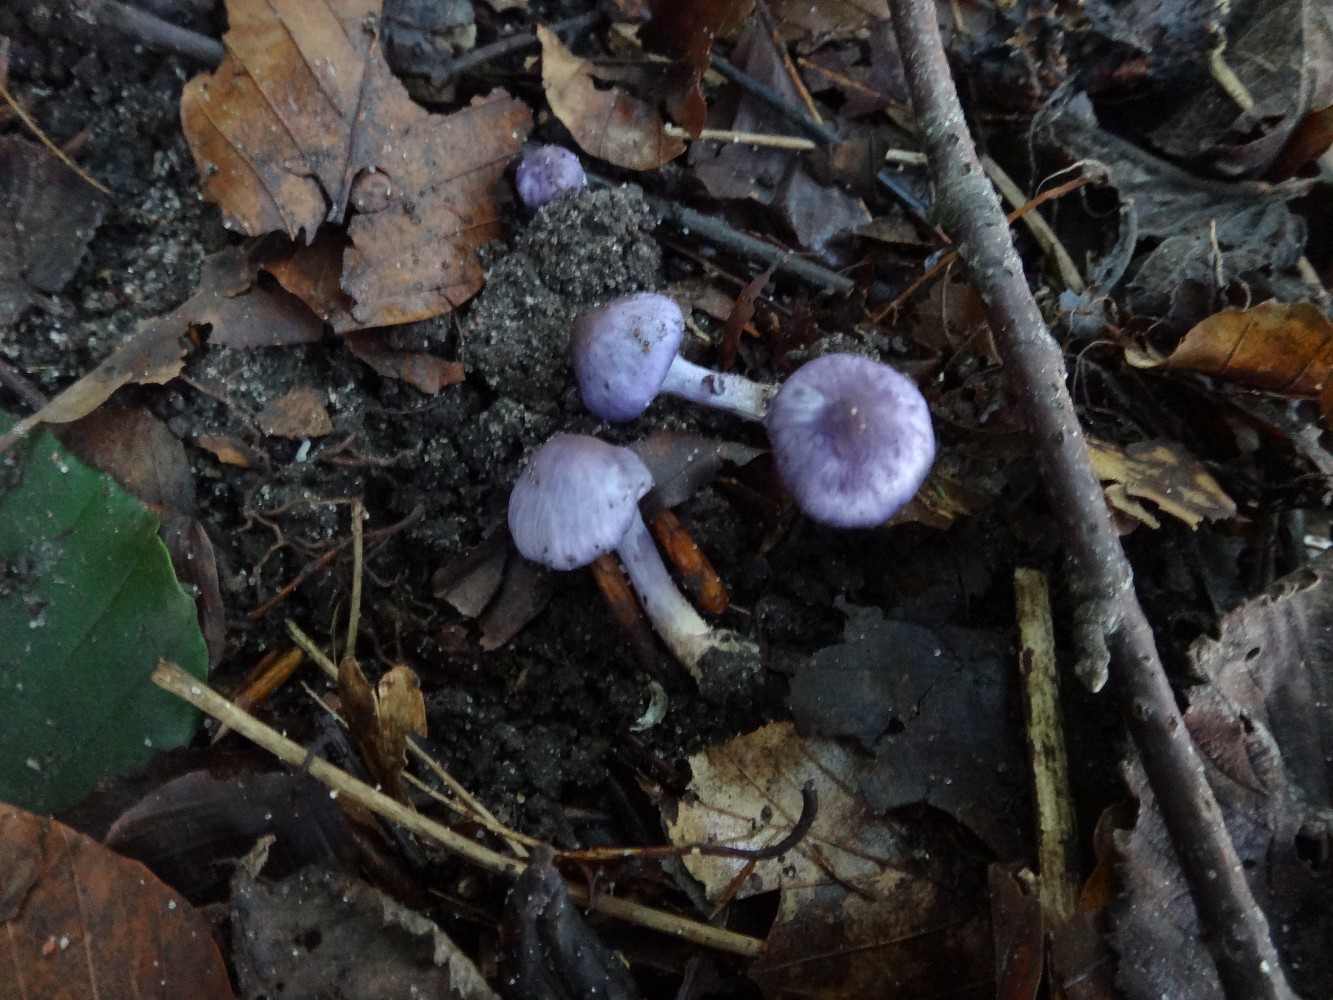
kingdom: Fungi
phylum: Basidiomycota
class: Agaricomycetes
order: Agaricales
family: Inocybaceae
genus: Inocybe
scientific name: Inocybe geophylla
